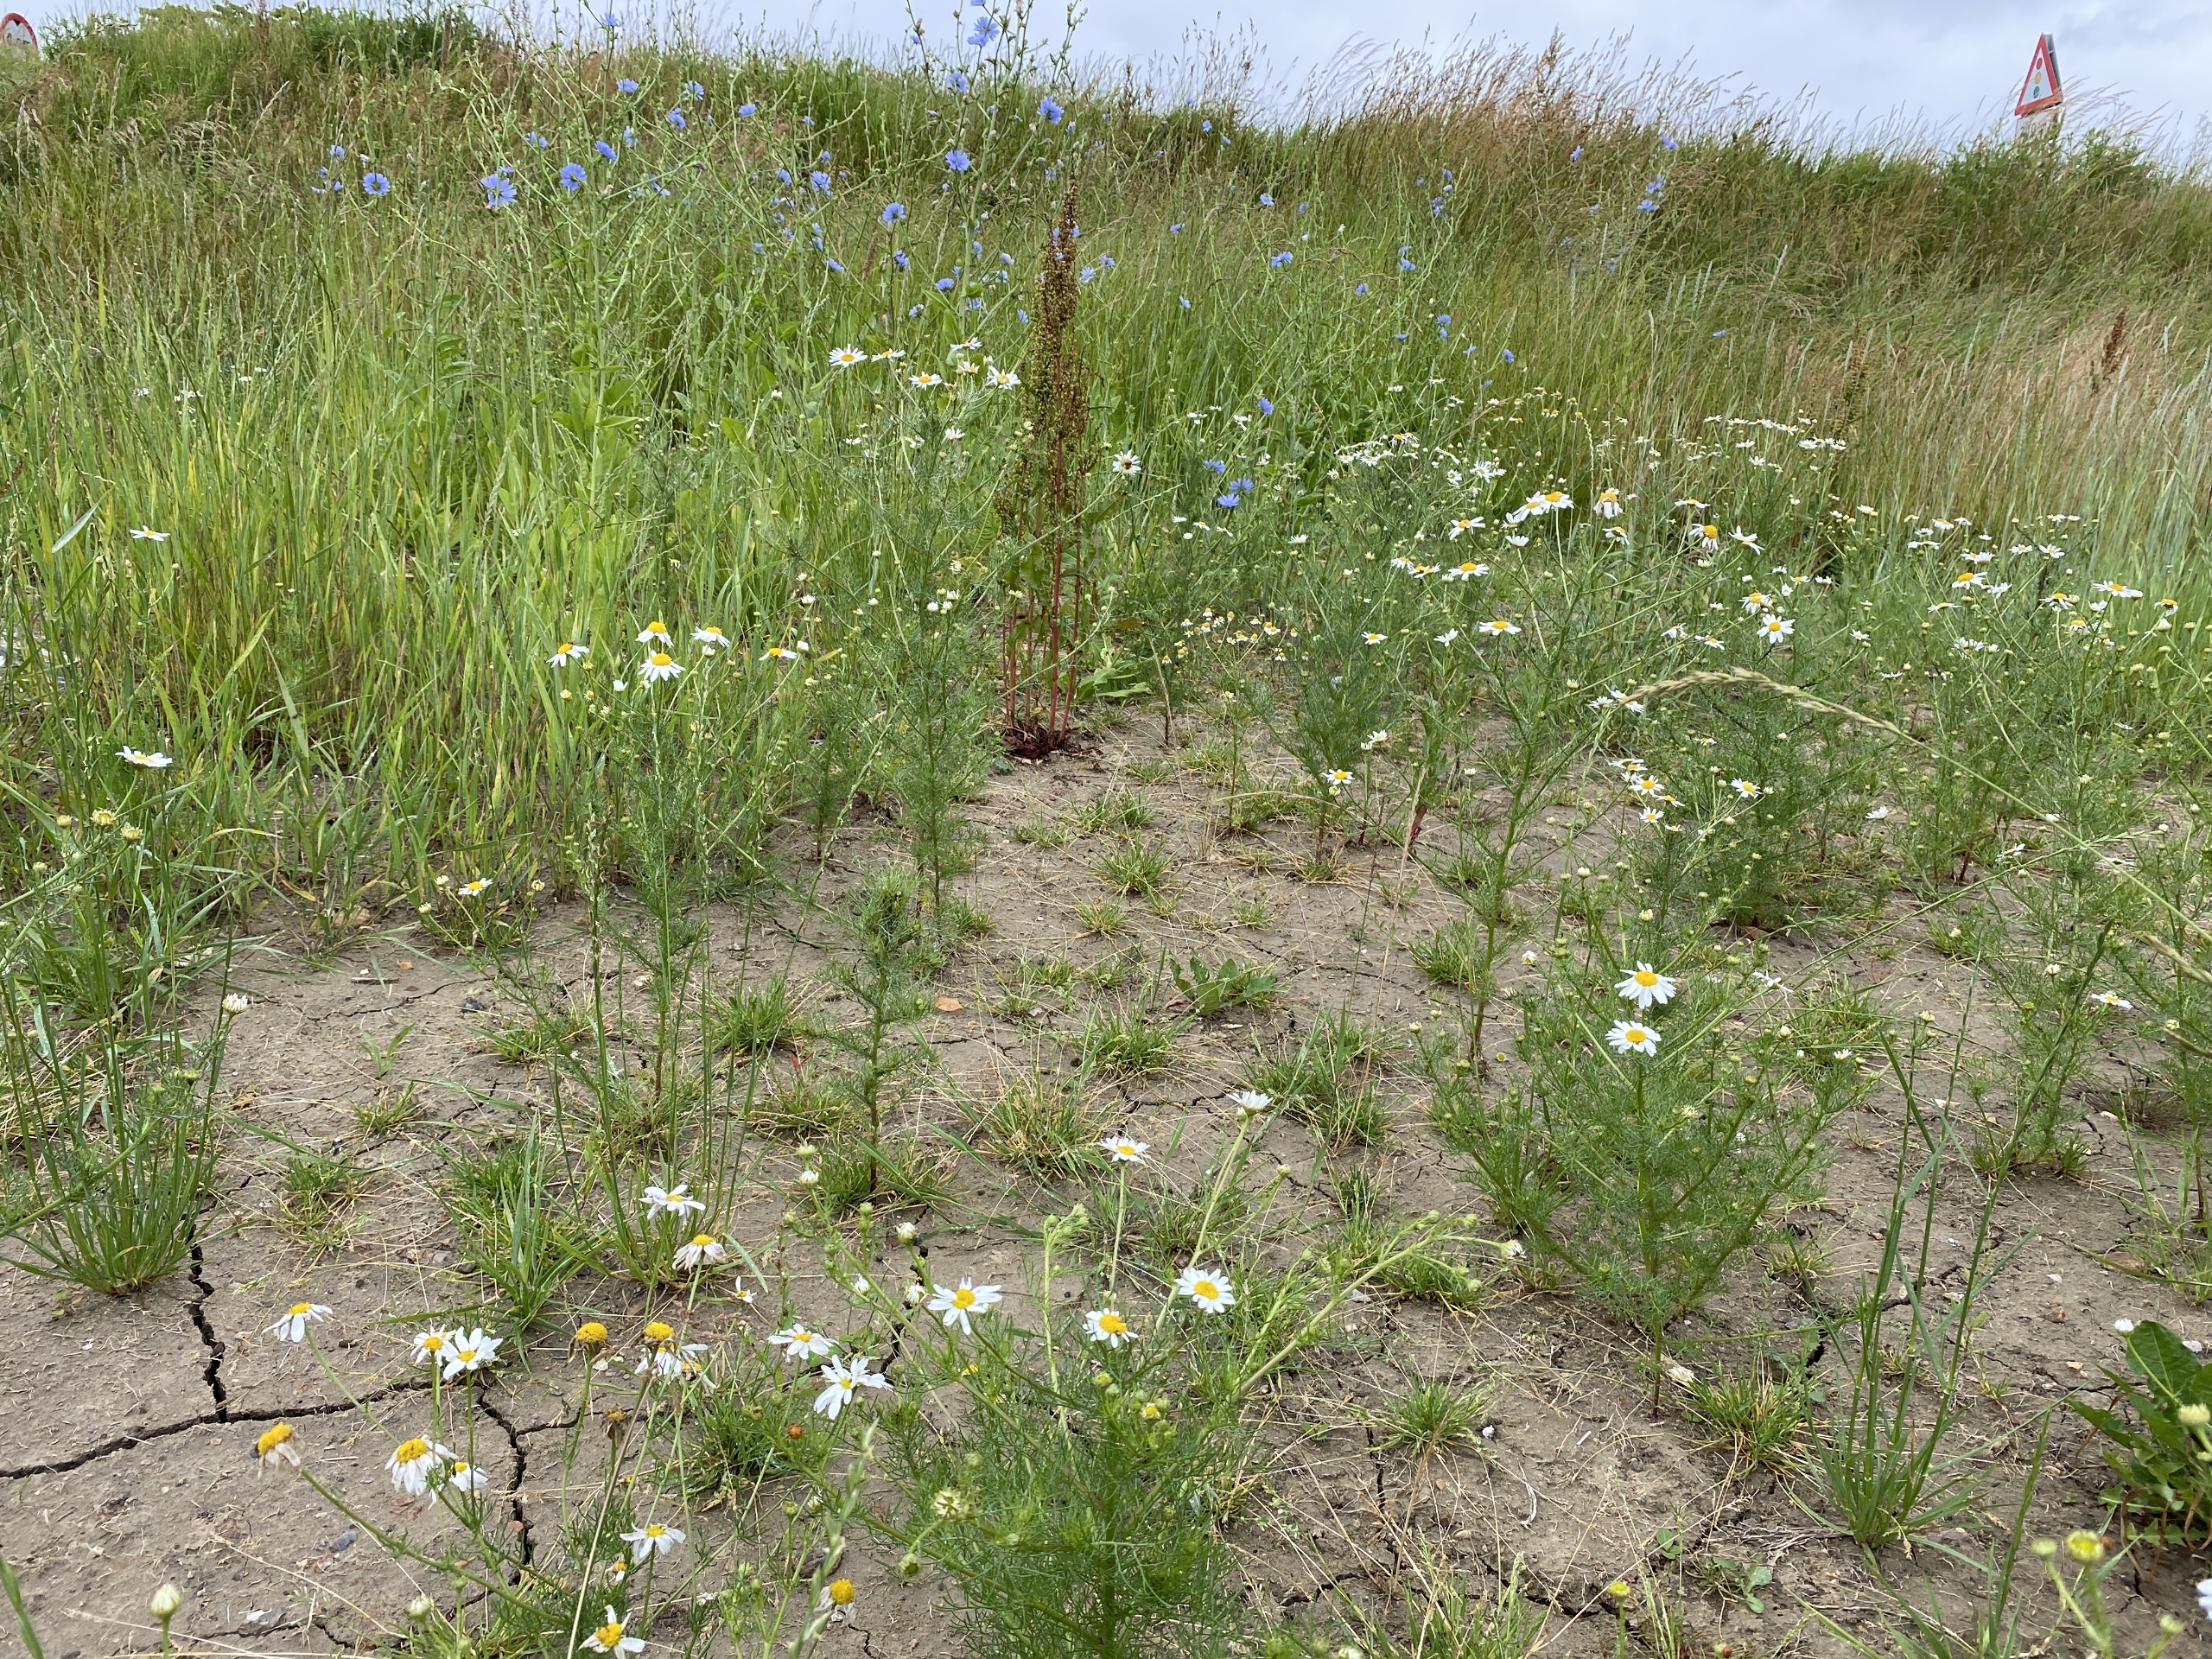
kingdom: Plantae
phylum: Tracheophyta
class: Magnoliopsida
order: Asterales
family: Asteraceae
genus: Tripleurospermum
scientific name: Tripleurospermum inodorum
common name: Lugtløs kamille
